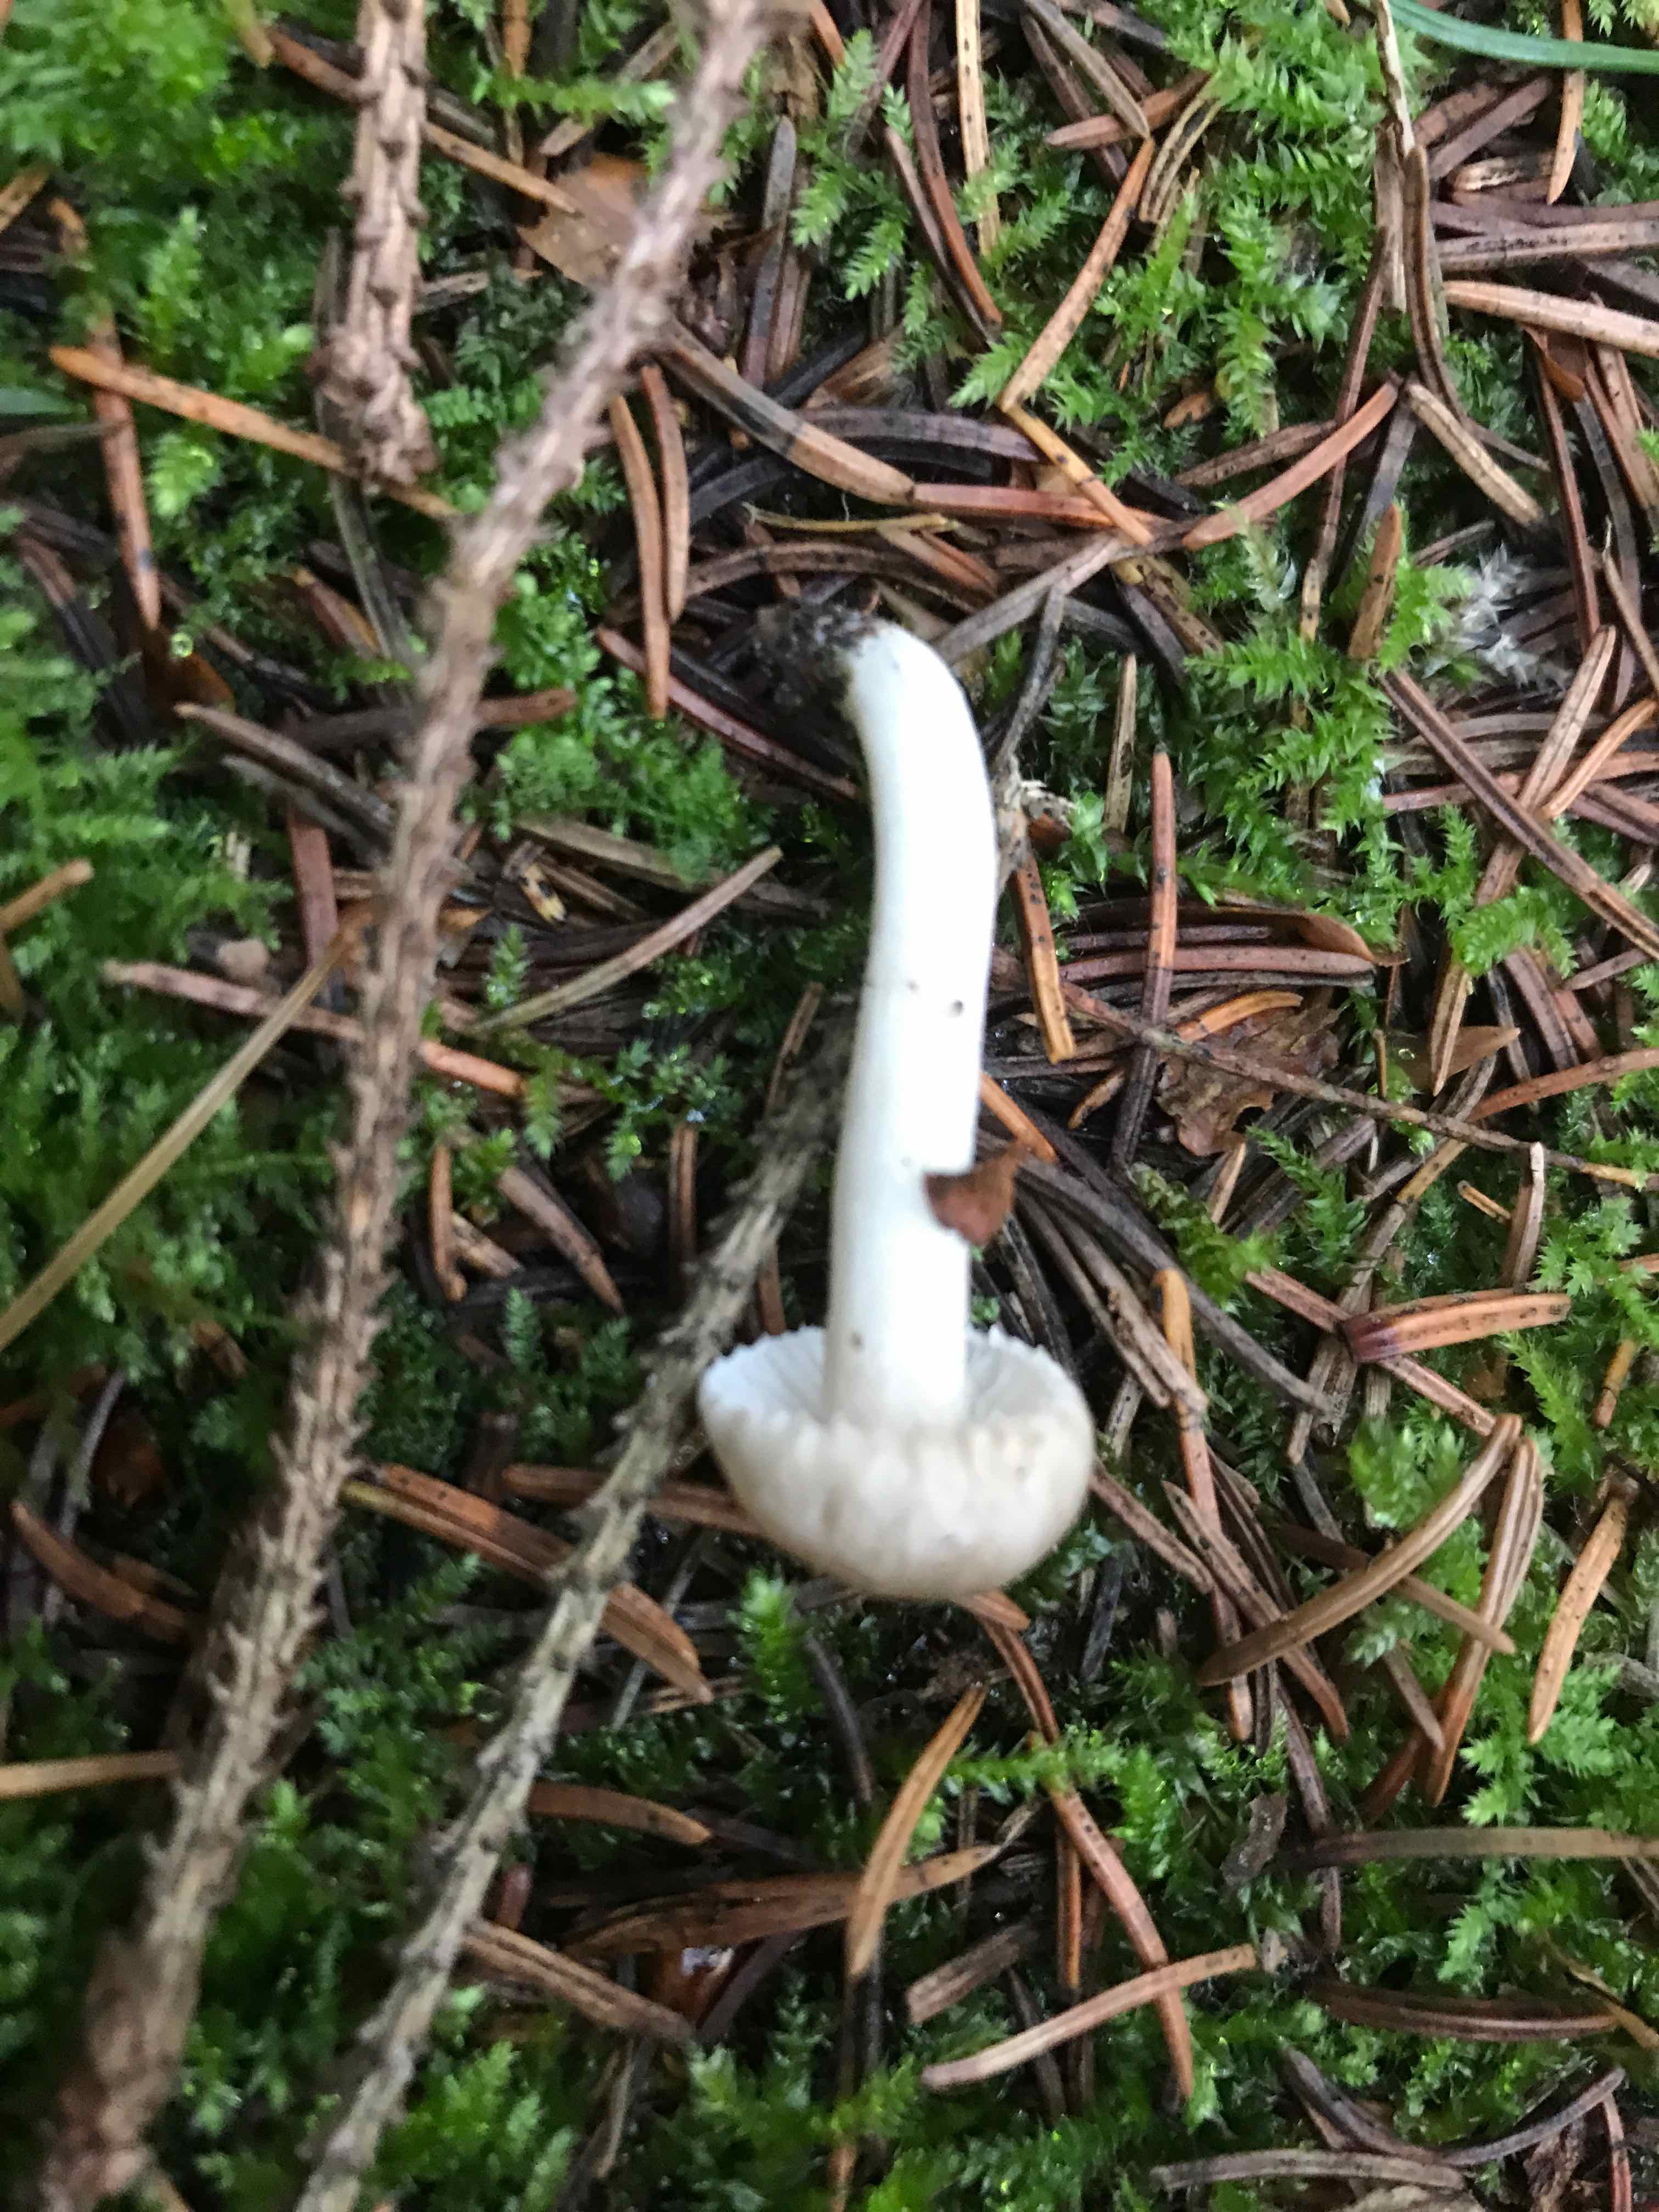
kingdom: Fungi
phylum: Basidiomycota
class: Agaricomycetes
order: Agaricales
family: Hygrophoraceae
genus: Hygrophorus
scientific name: Hygrophorus pustulatus
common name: mørkprikket sneglehat
